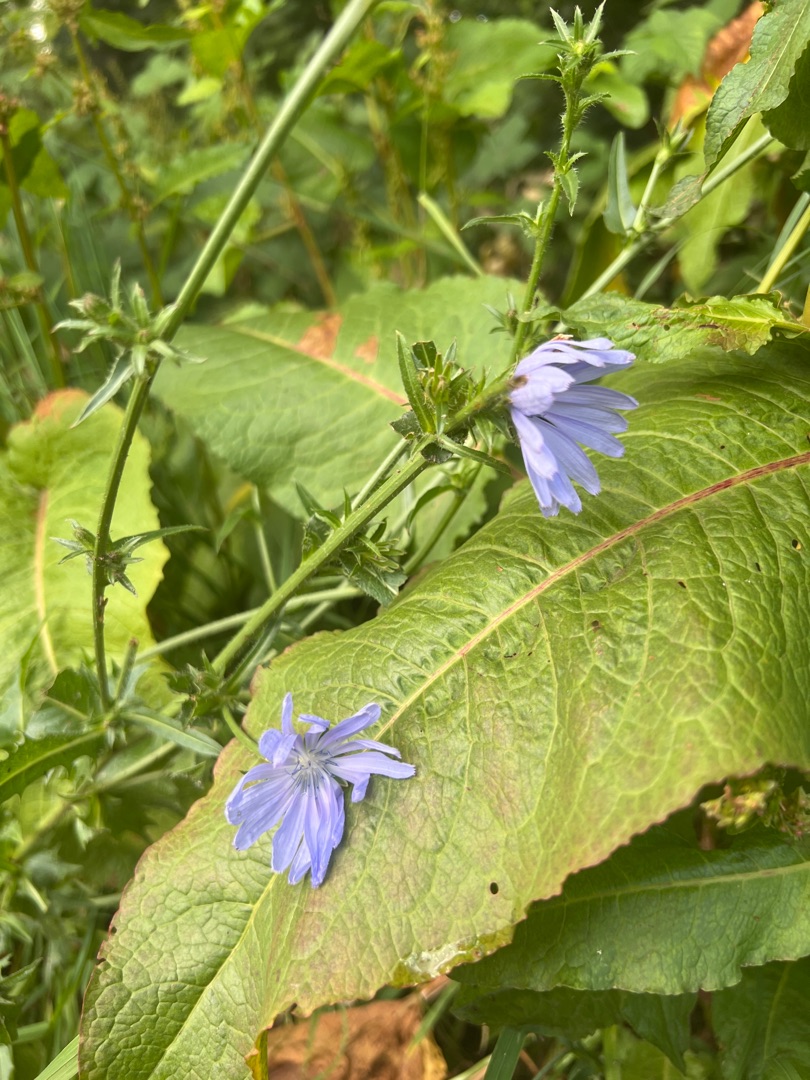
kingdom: Plantae
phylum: Tracheophyta
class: Magnoliopsida
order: Asterales
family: Asteraceae
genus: Cichorium
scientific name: Cichorium intybus
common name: Cikorie (varietet)
